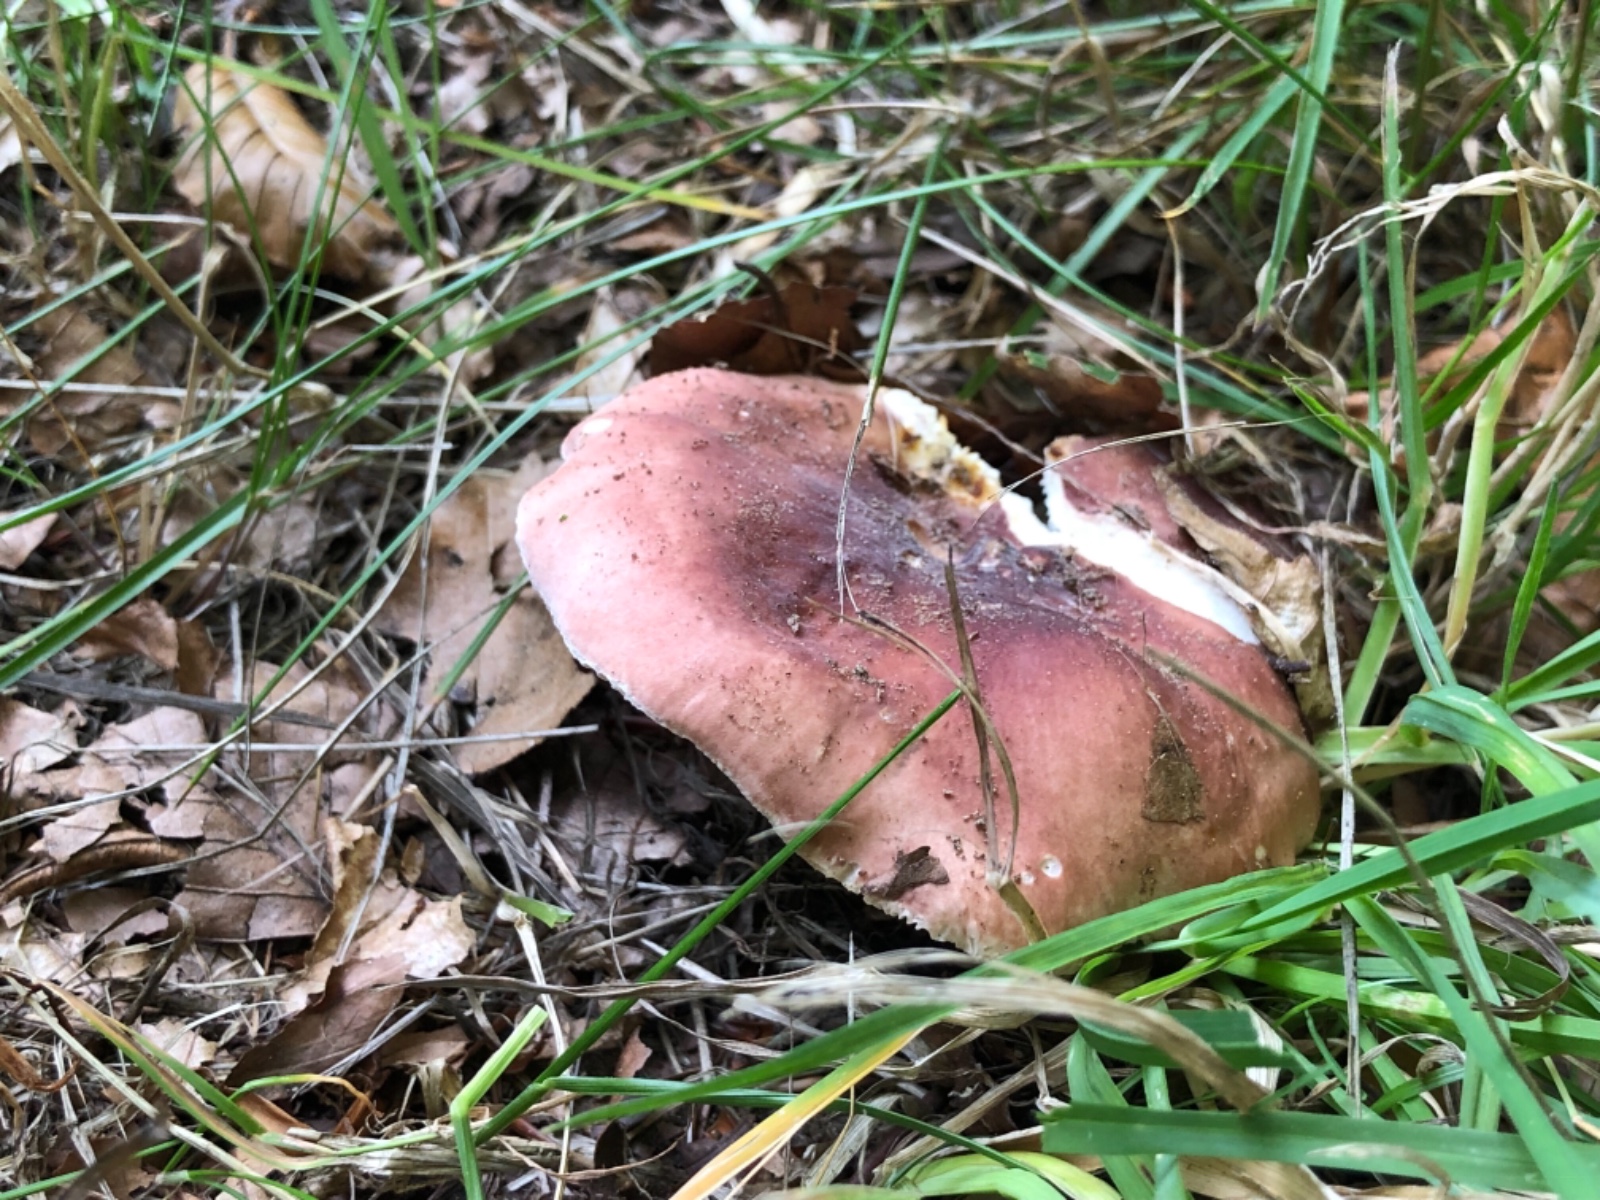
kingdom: Fungi
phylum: Basidiomycota
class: Agaricomycetes
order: Russulales
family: Russulaceae
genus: Russula
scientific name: Russula vesca
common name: spiselig skørhat
